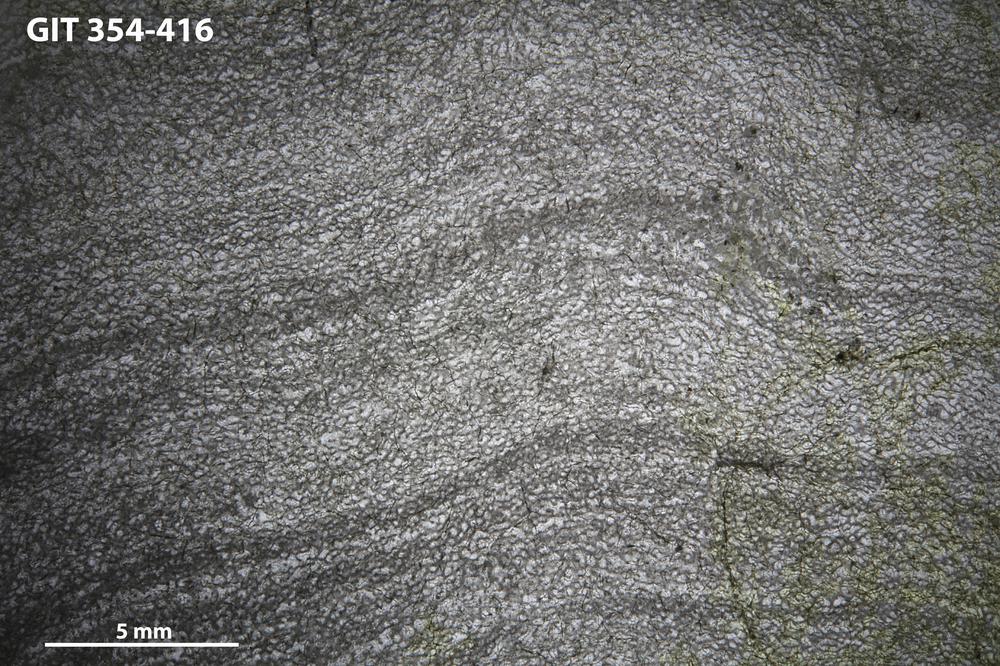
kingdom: Animalia
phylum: Porifera
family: Clathrodictyidae
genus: Clathrodictyon
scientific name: Clathrodictyon kudriavzevi
